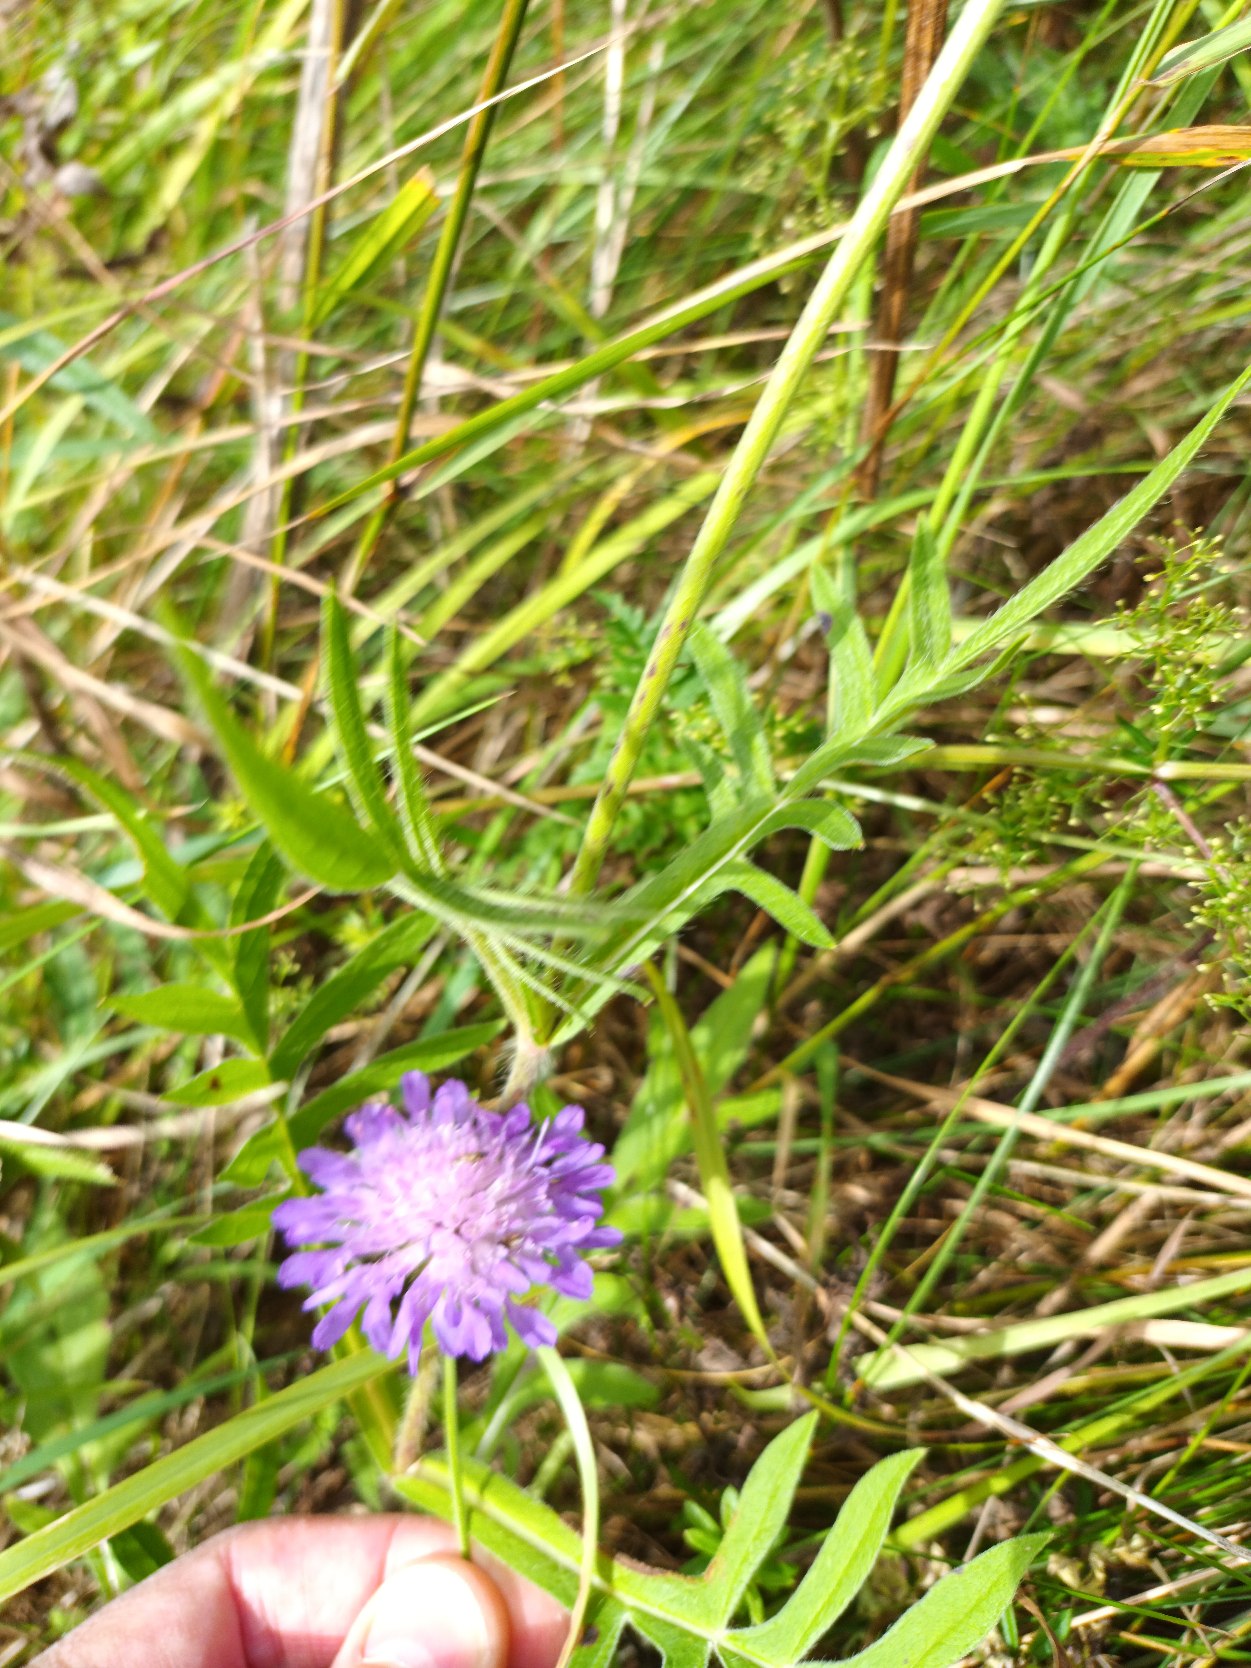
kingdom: Plantae
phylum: Tracheophyta
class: Magnoliopsida
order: Dipsacales
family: Caprifoliaceae
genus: Knautia
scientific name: Knautia arvensis
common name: Blåhat
